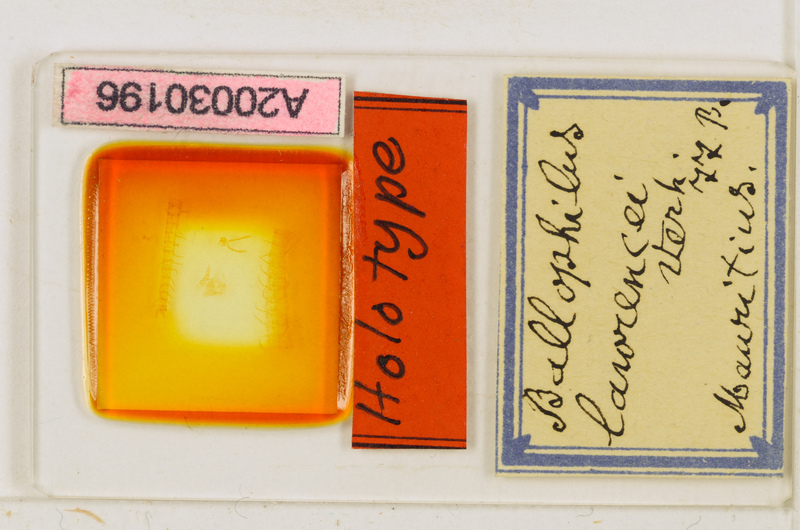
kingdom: Animalia
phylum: Arthropoda
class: Chilopoda
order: Geophilomorpha
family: Ballophilidae
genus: Ballophilus
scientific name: Ballophilus lawrencei
